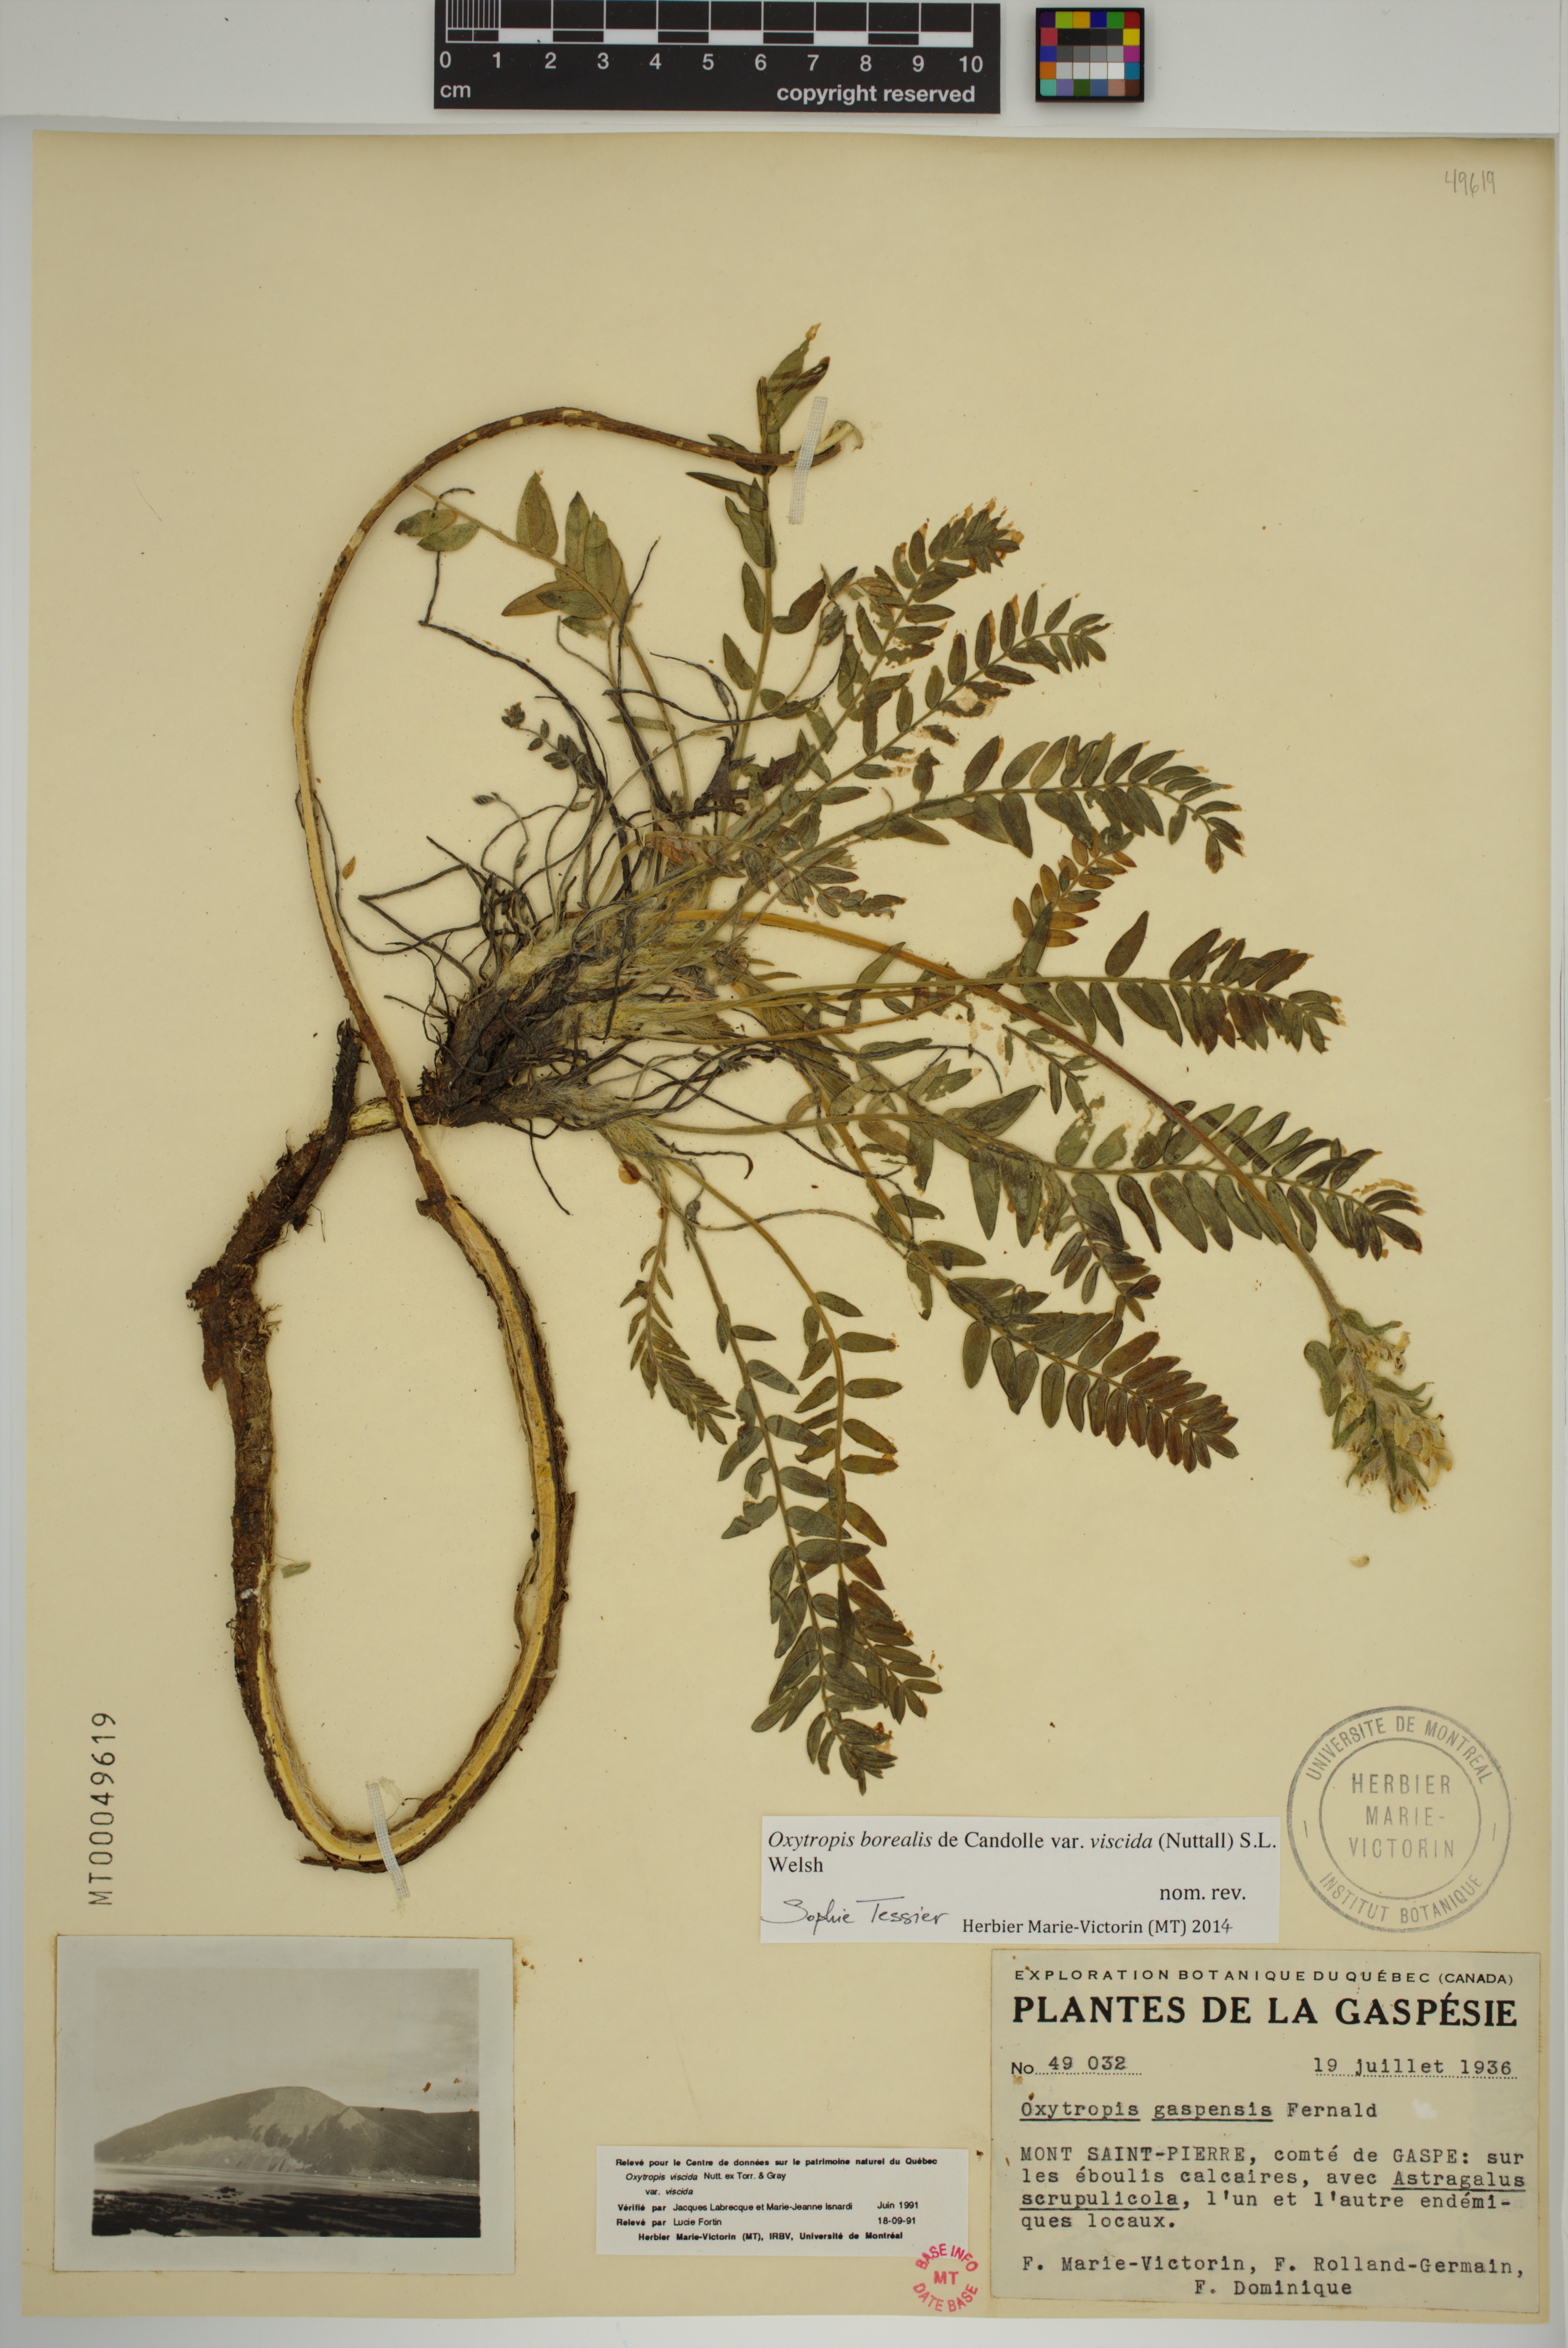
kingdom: Plantae
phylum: Tracheophyta
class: Magnoliopsida
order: Fabales
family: Fabaceae
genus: Oxytropis
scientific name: Oxytropis borealis
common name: Boreal locoweed
